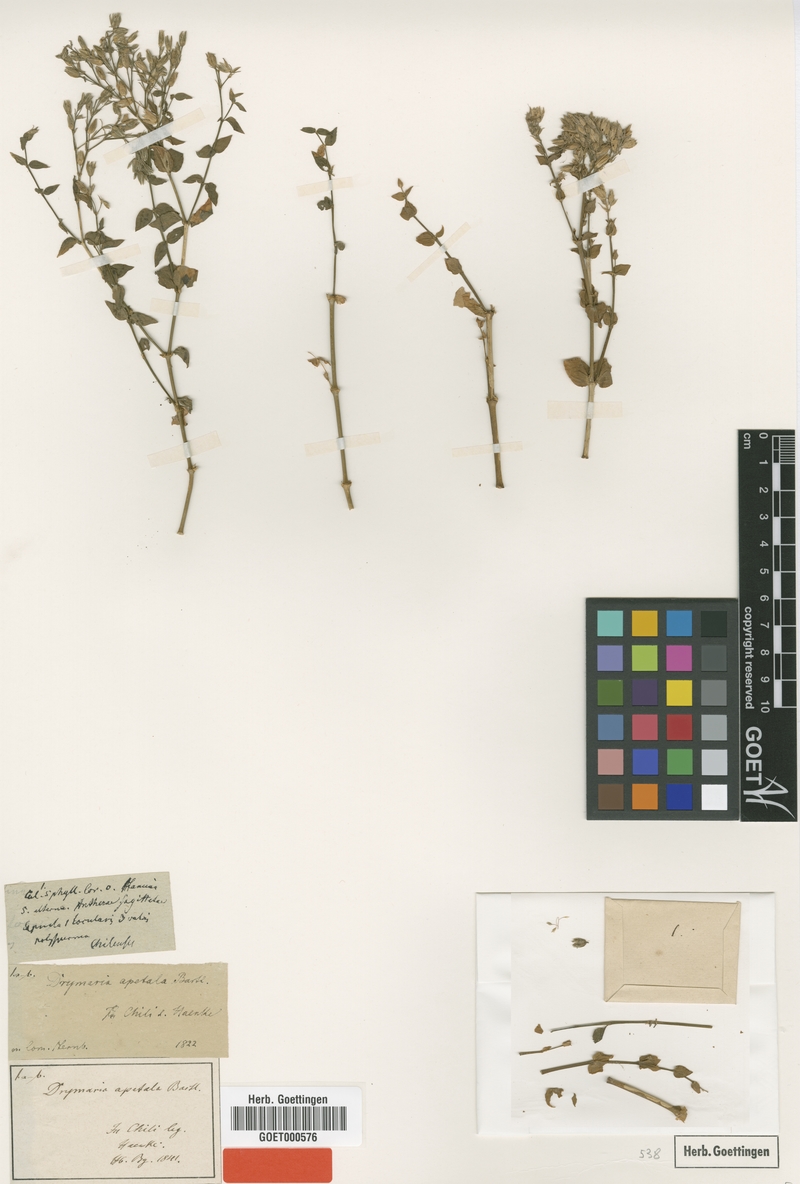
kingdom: Plantae
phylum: Tracheophyta
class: Magnoliopsida
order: Caryophyllales
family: Caryophyllaceae
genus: Drymaria
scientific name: Drymaria apetala
